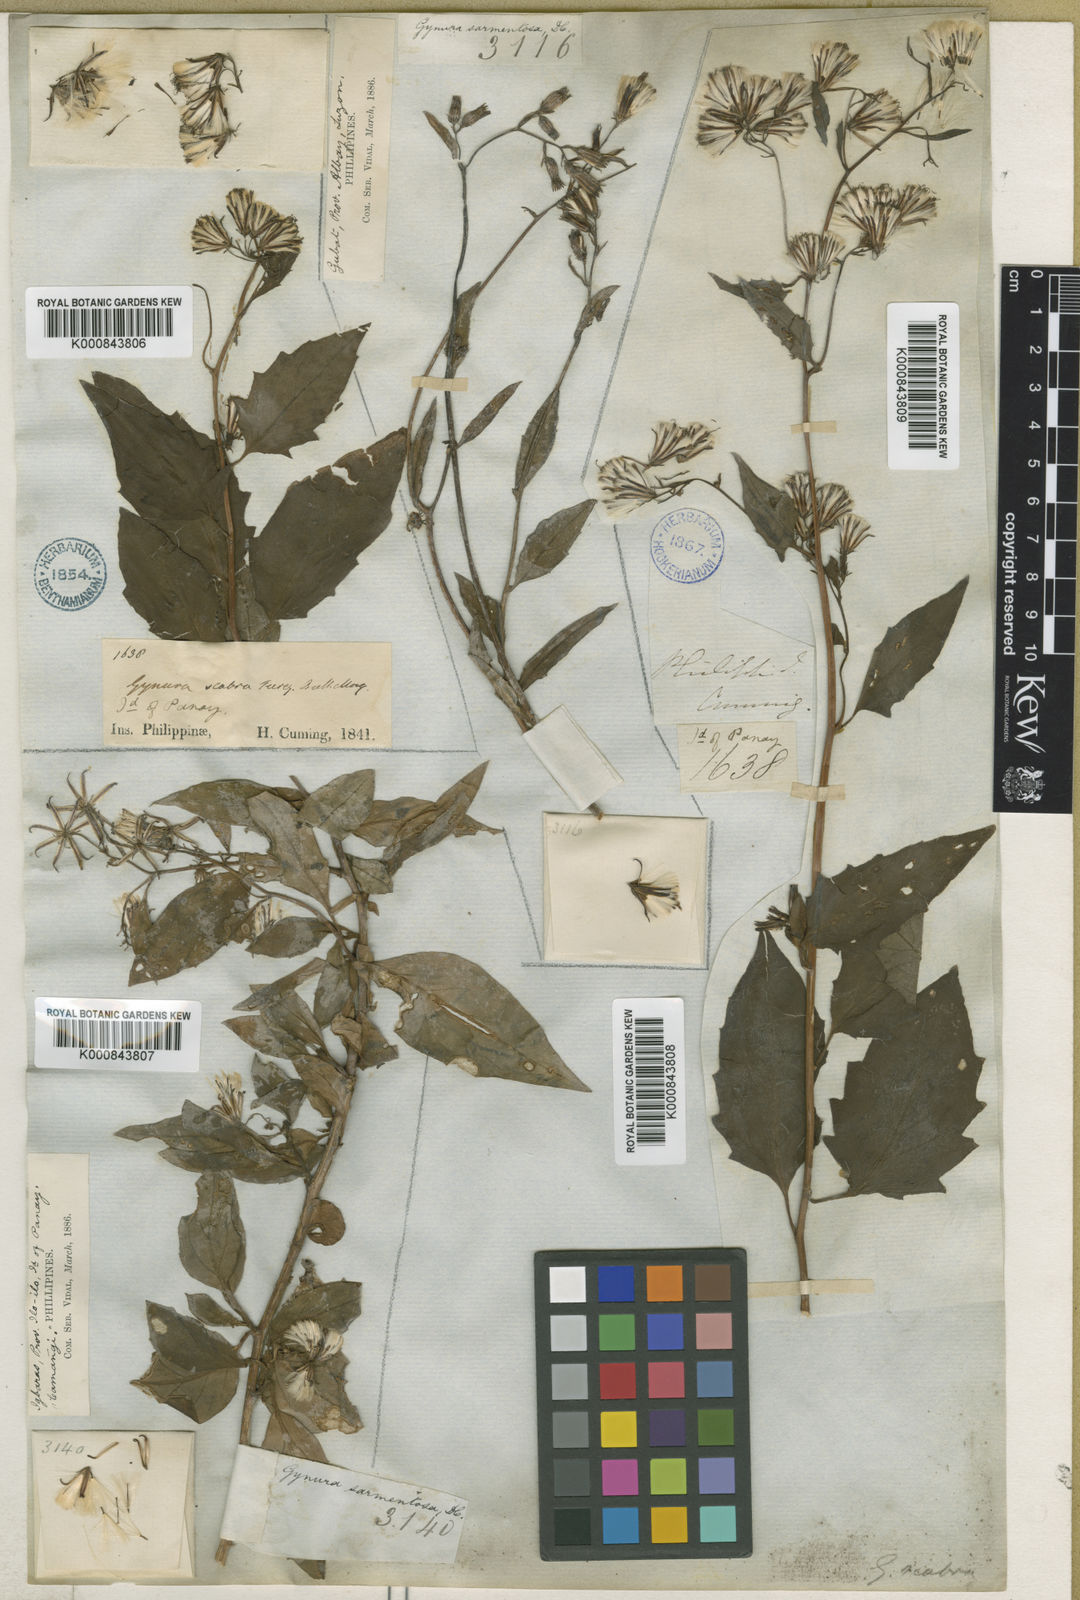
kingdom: Plantae
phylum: Tracheophyta
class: Magnoliopsida
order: Asterales
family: Asteraceae
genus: Gynura
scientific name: Gynura procumbens
